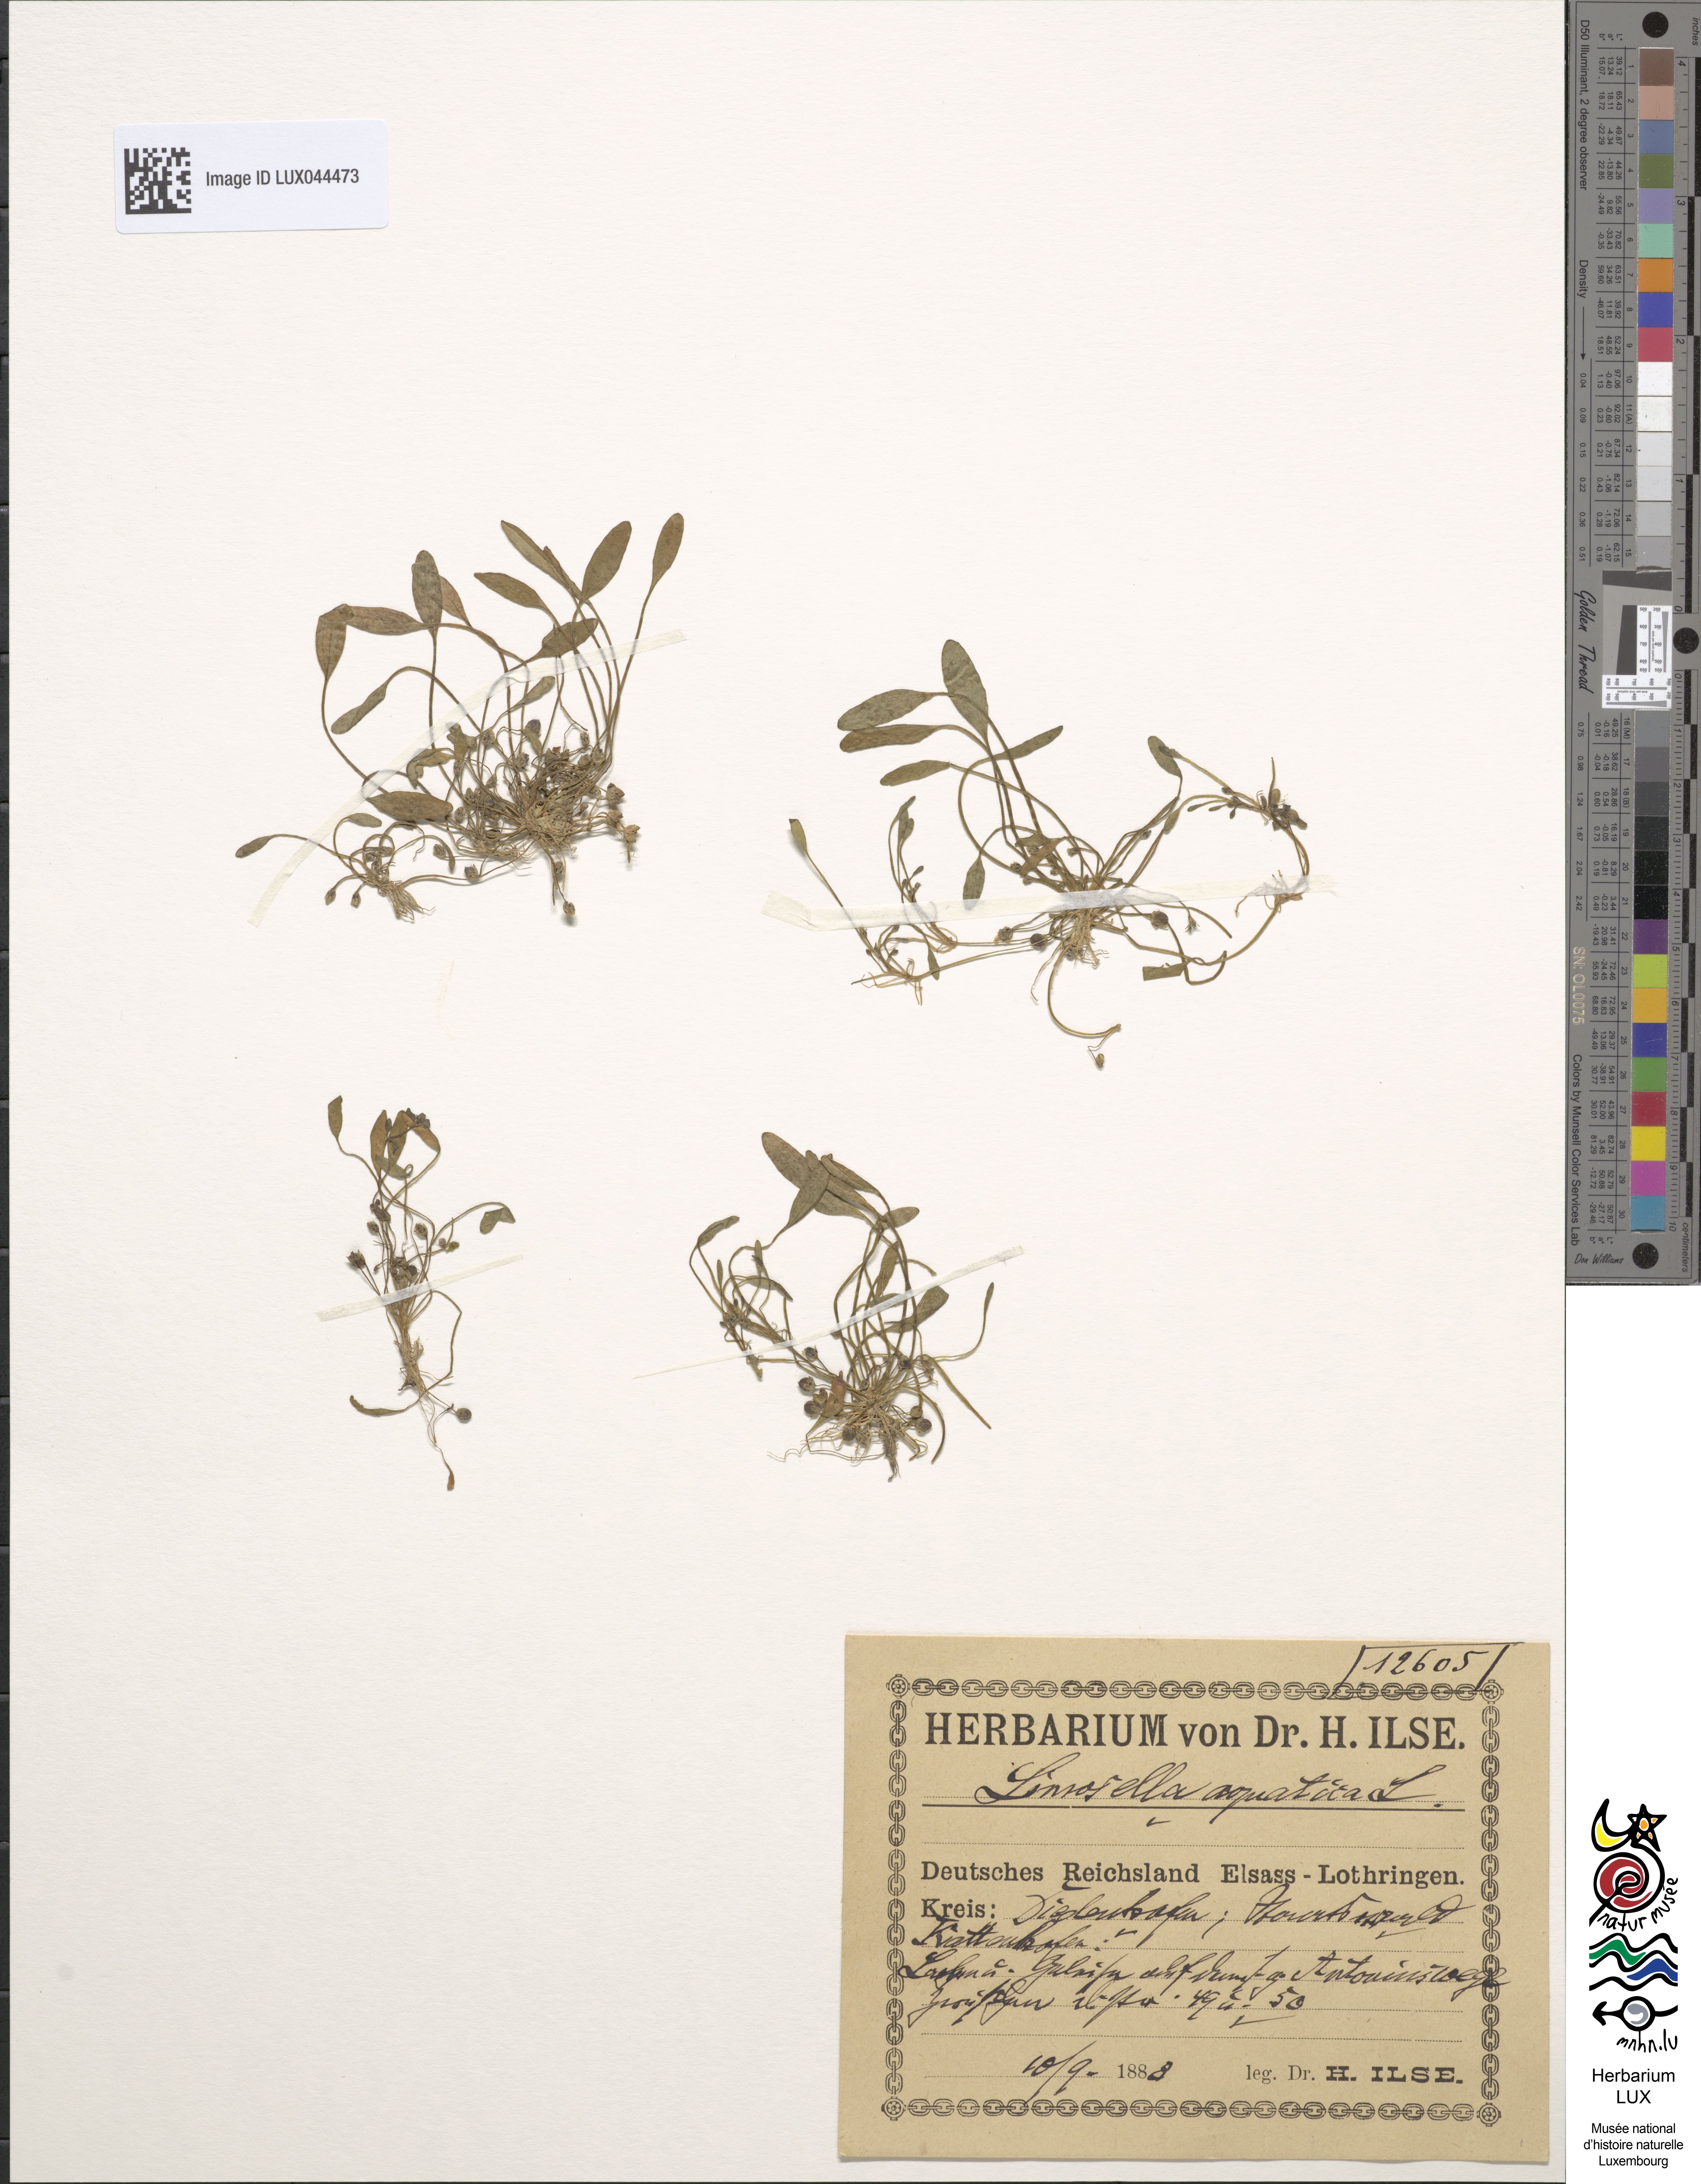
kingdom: Plantae
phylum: Tracheophyta
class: Magnoliopsida
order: Lamiales
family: Scrophulariaceae
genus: Limosella
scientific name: Limosella aquatica
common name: Mudwort
